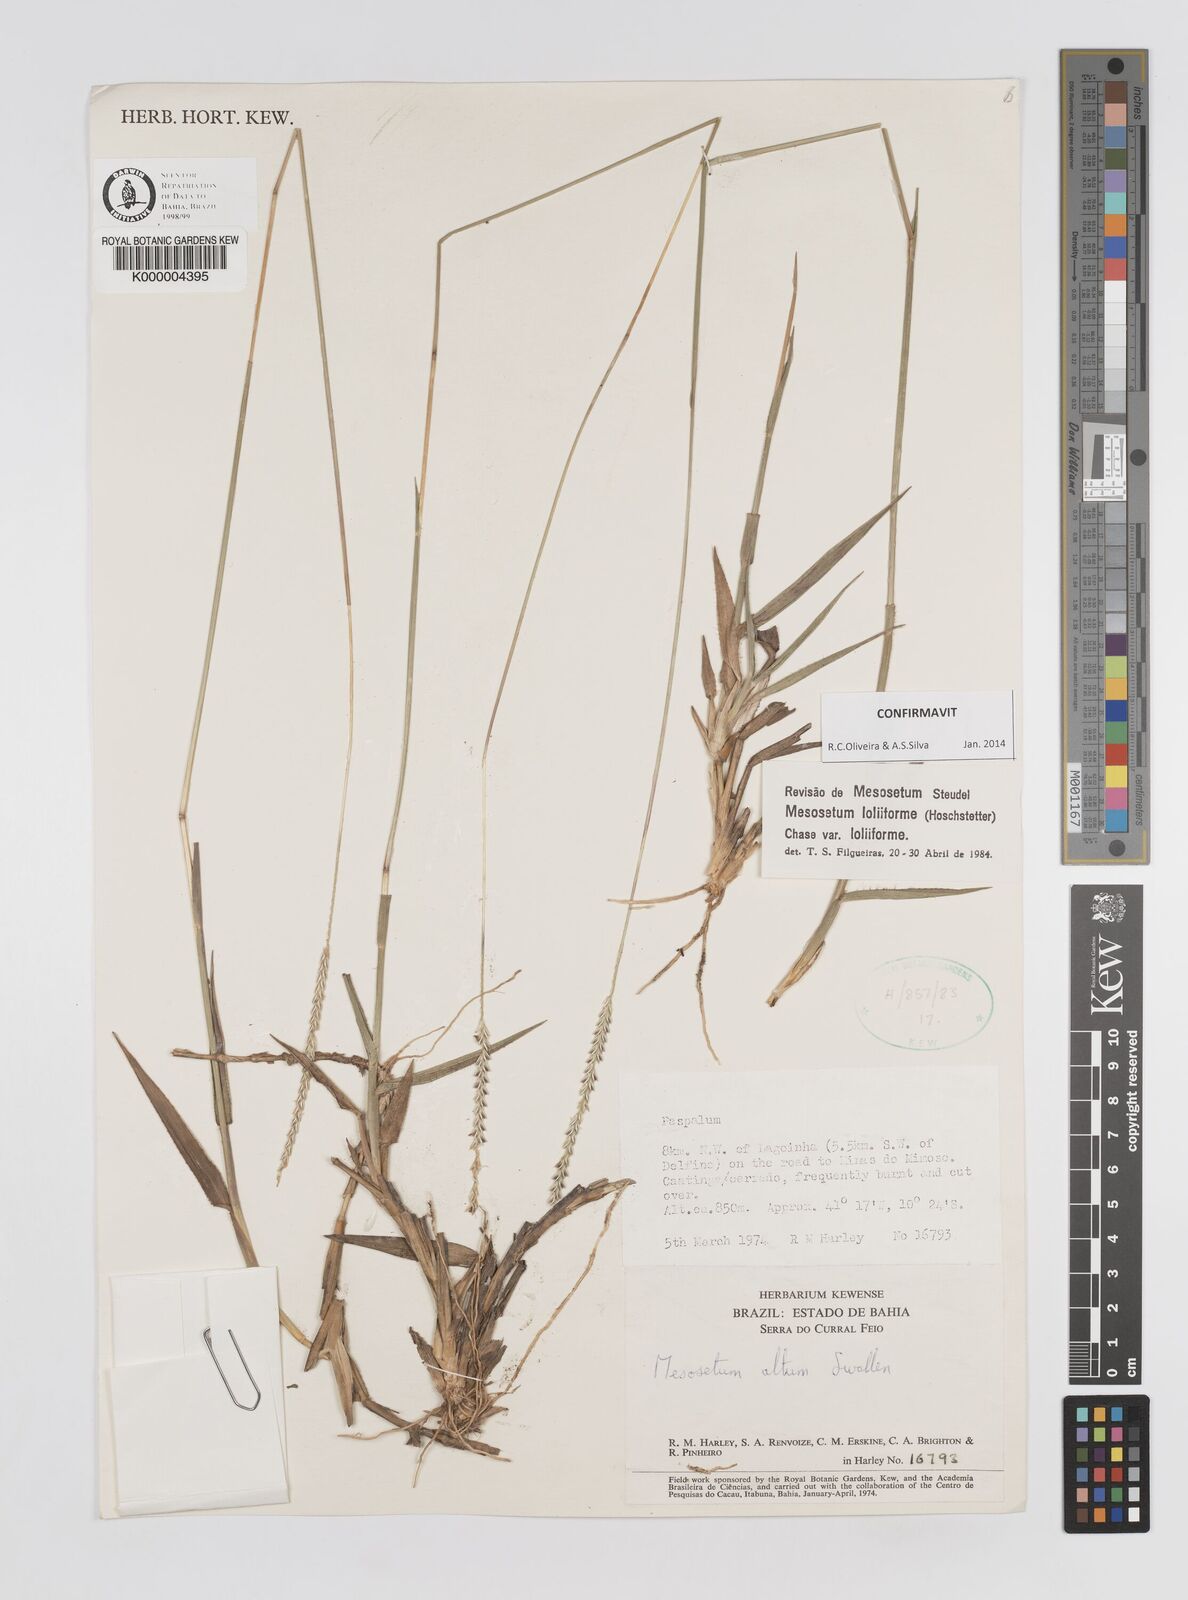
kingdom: Plantae
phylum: Tracheophyta
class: Liliopsida
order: Poales
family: Poaceae
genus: Mesosetum
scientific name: Mesosetum
